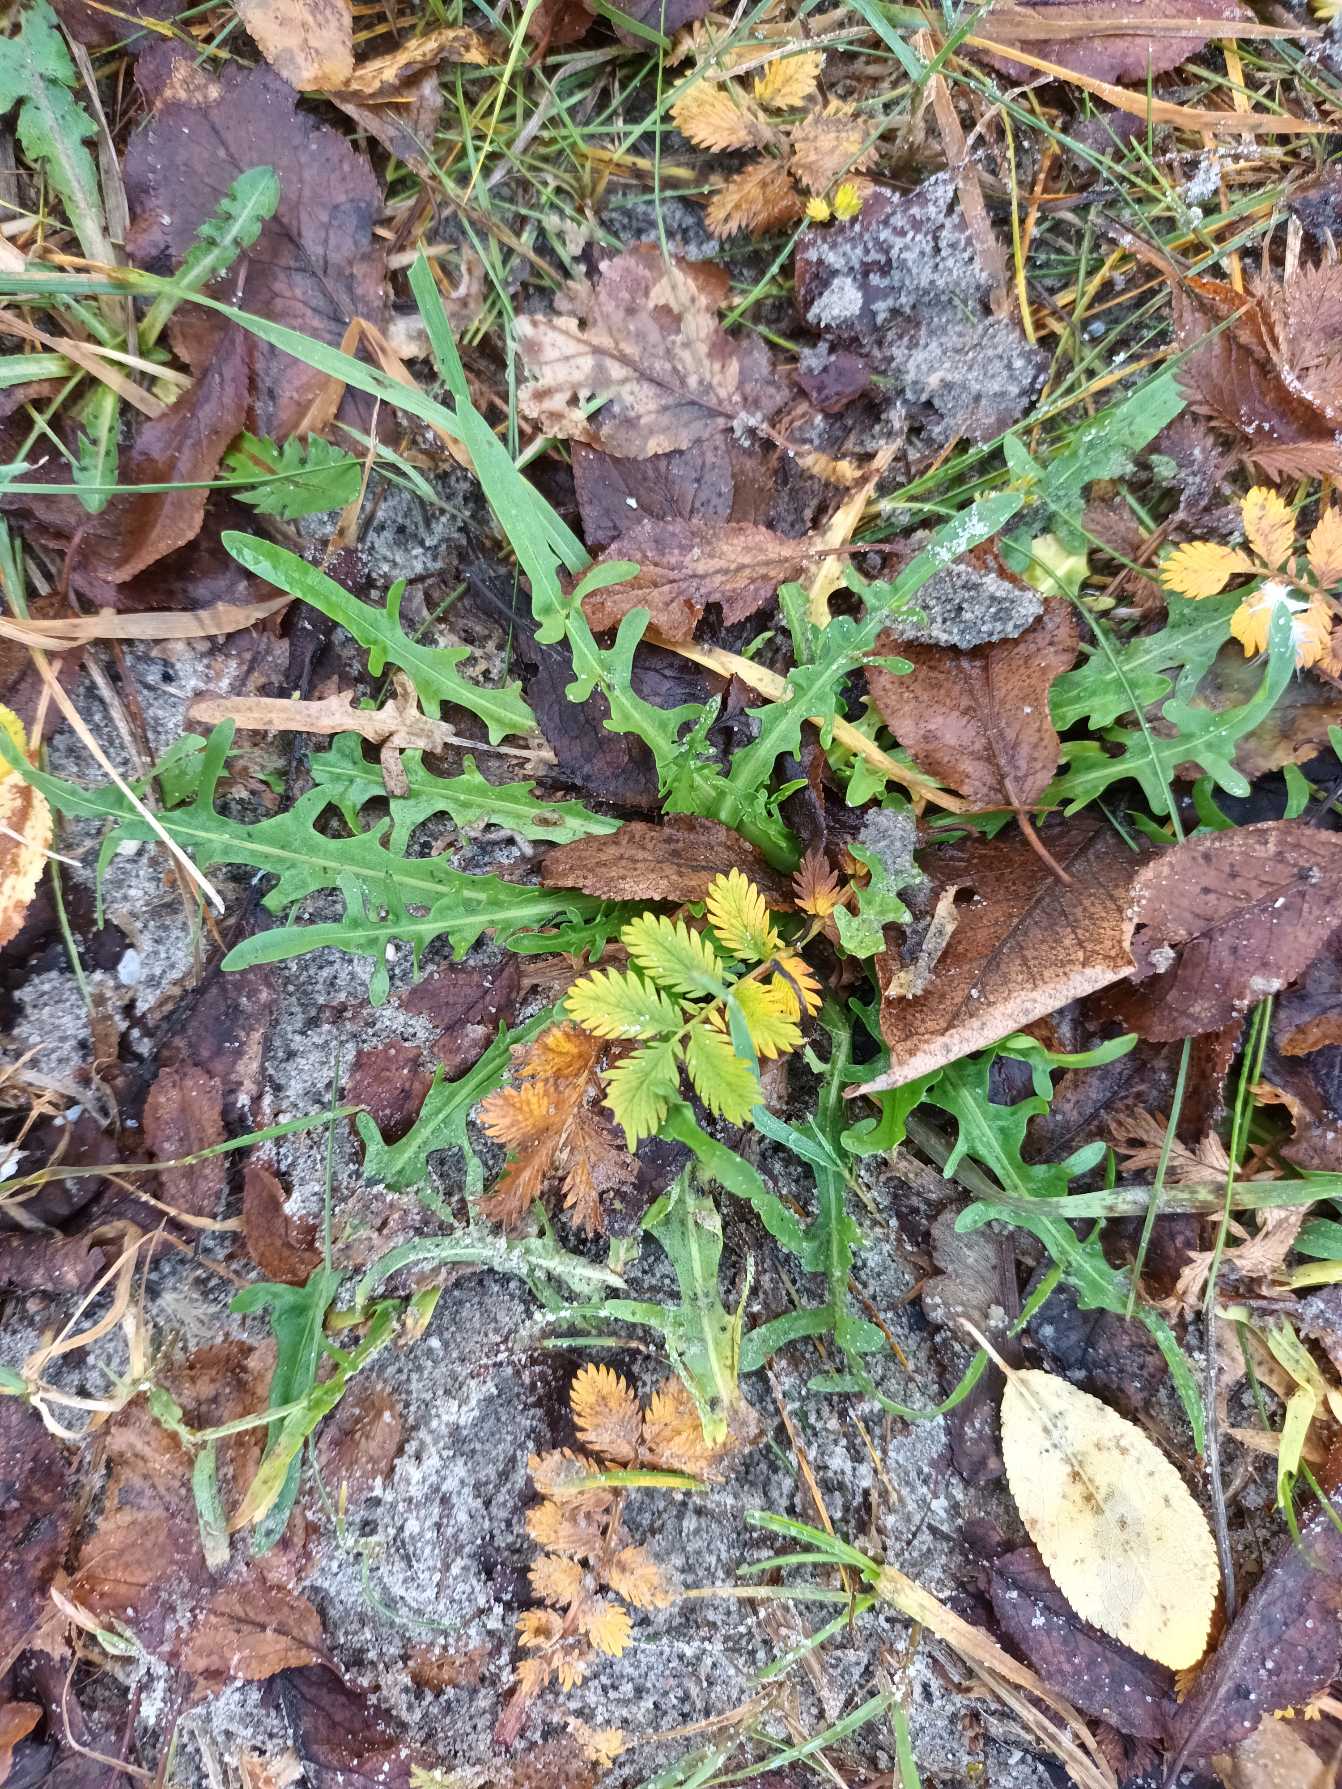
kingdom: Plantae
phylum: Tracheophyta
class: Magnoliopsida
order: Asterales
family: Asteraceae
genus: Scorzoneroides
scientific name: Scorzoneroides autumnalis
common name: Høst-borst
